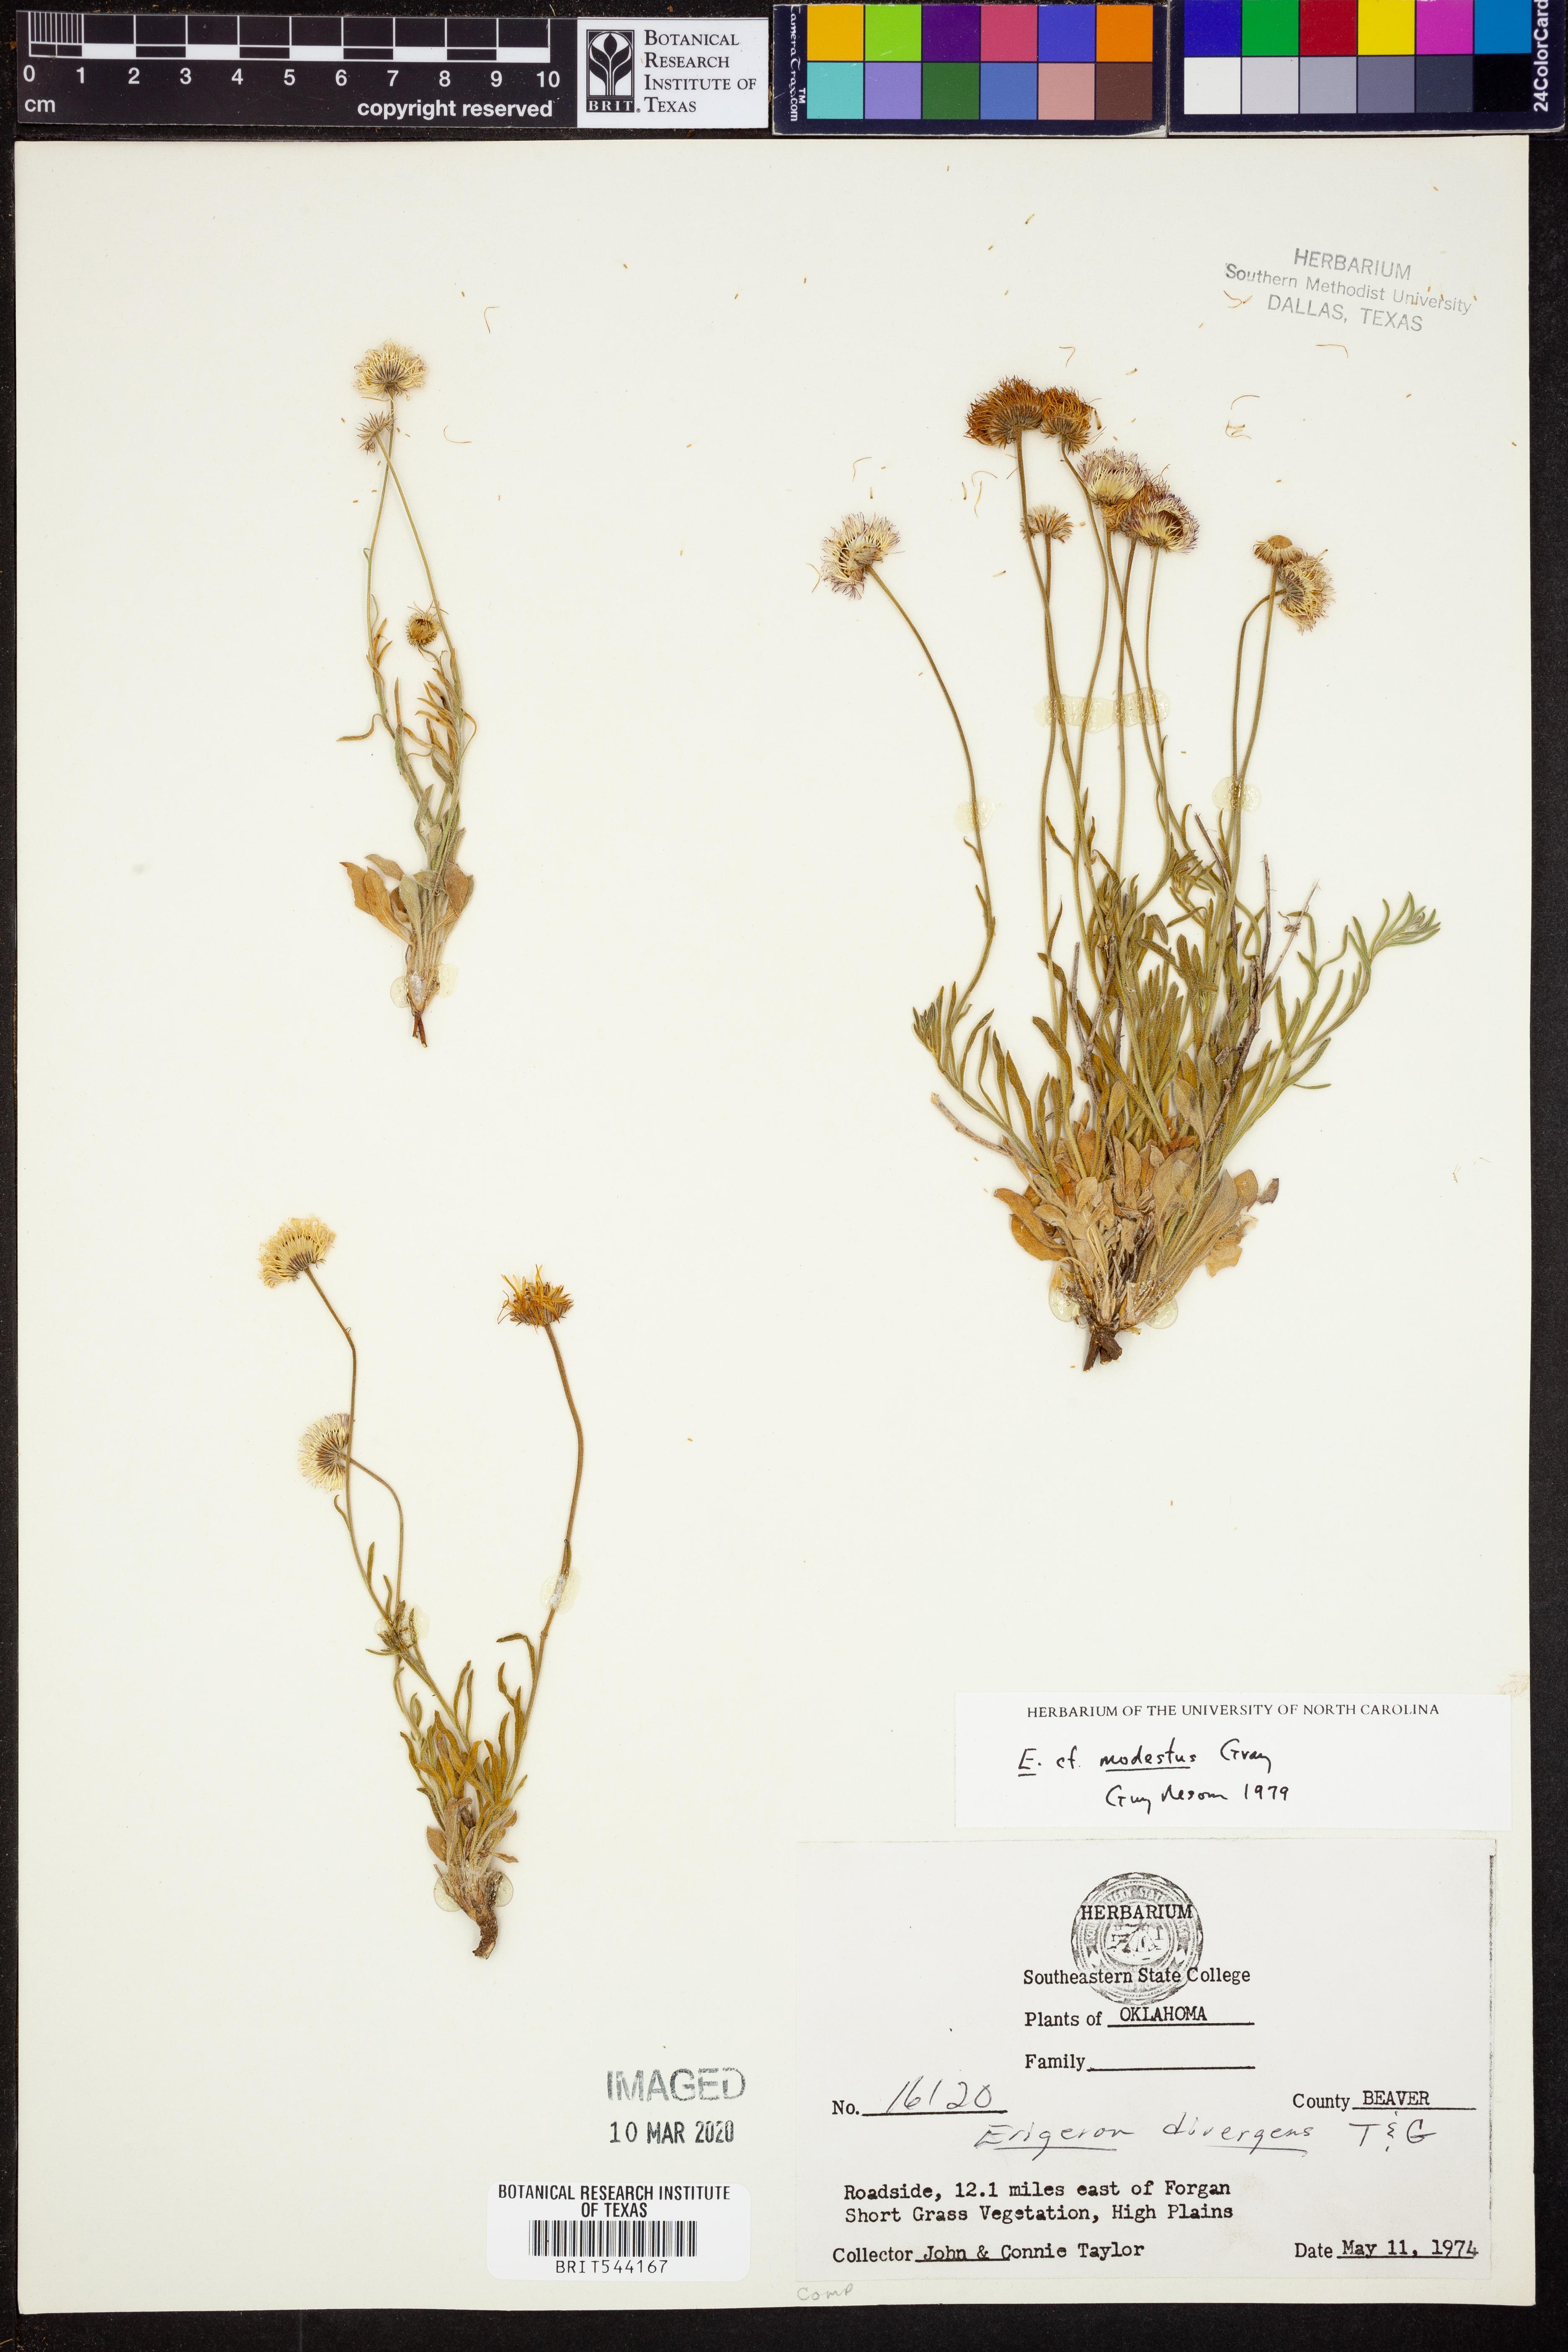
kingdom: Plantae
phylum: Tracheophyta
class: Magnoliopsida
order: Asterales
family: Asteraceae
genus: Erigeron
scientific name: Erigeron modestus
